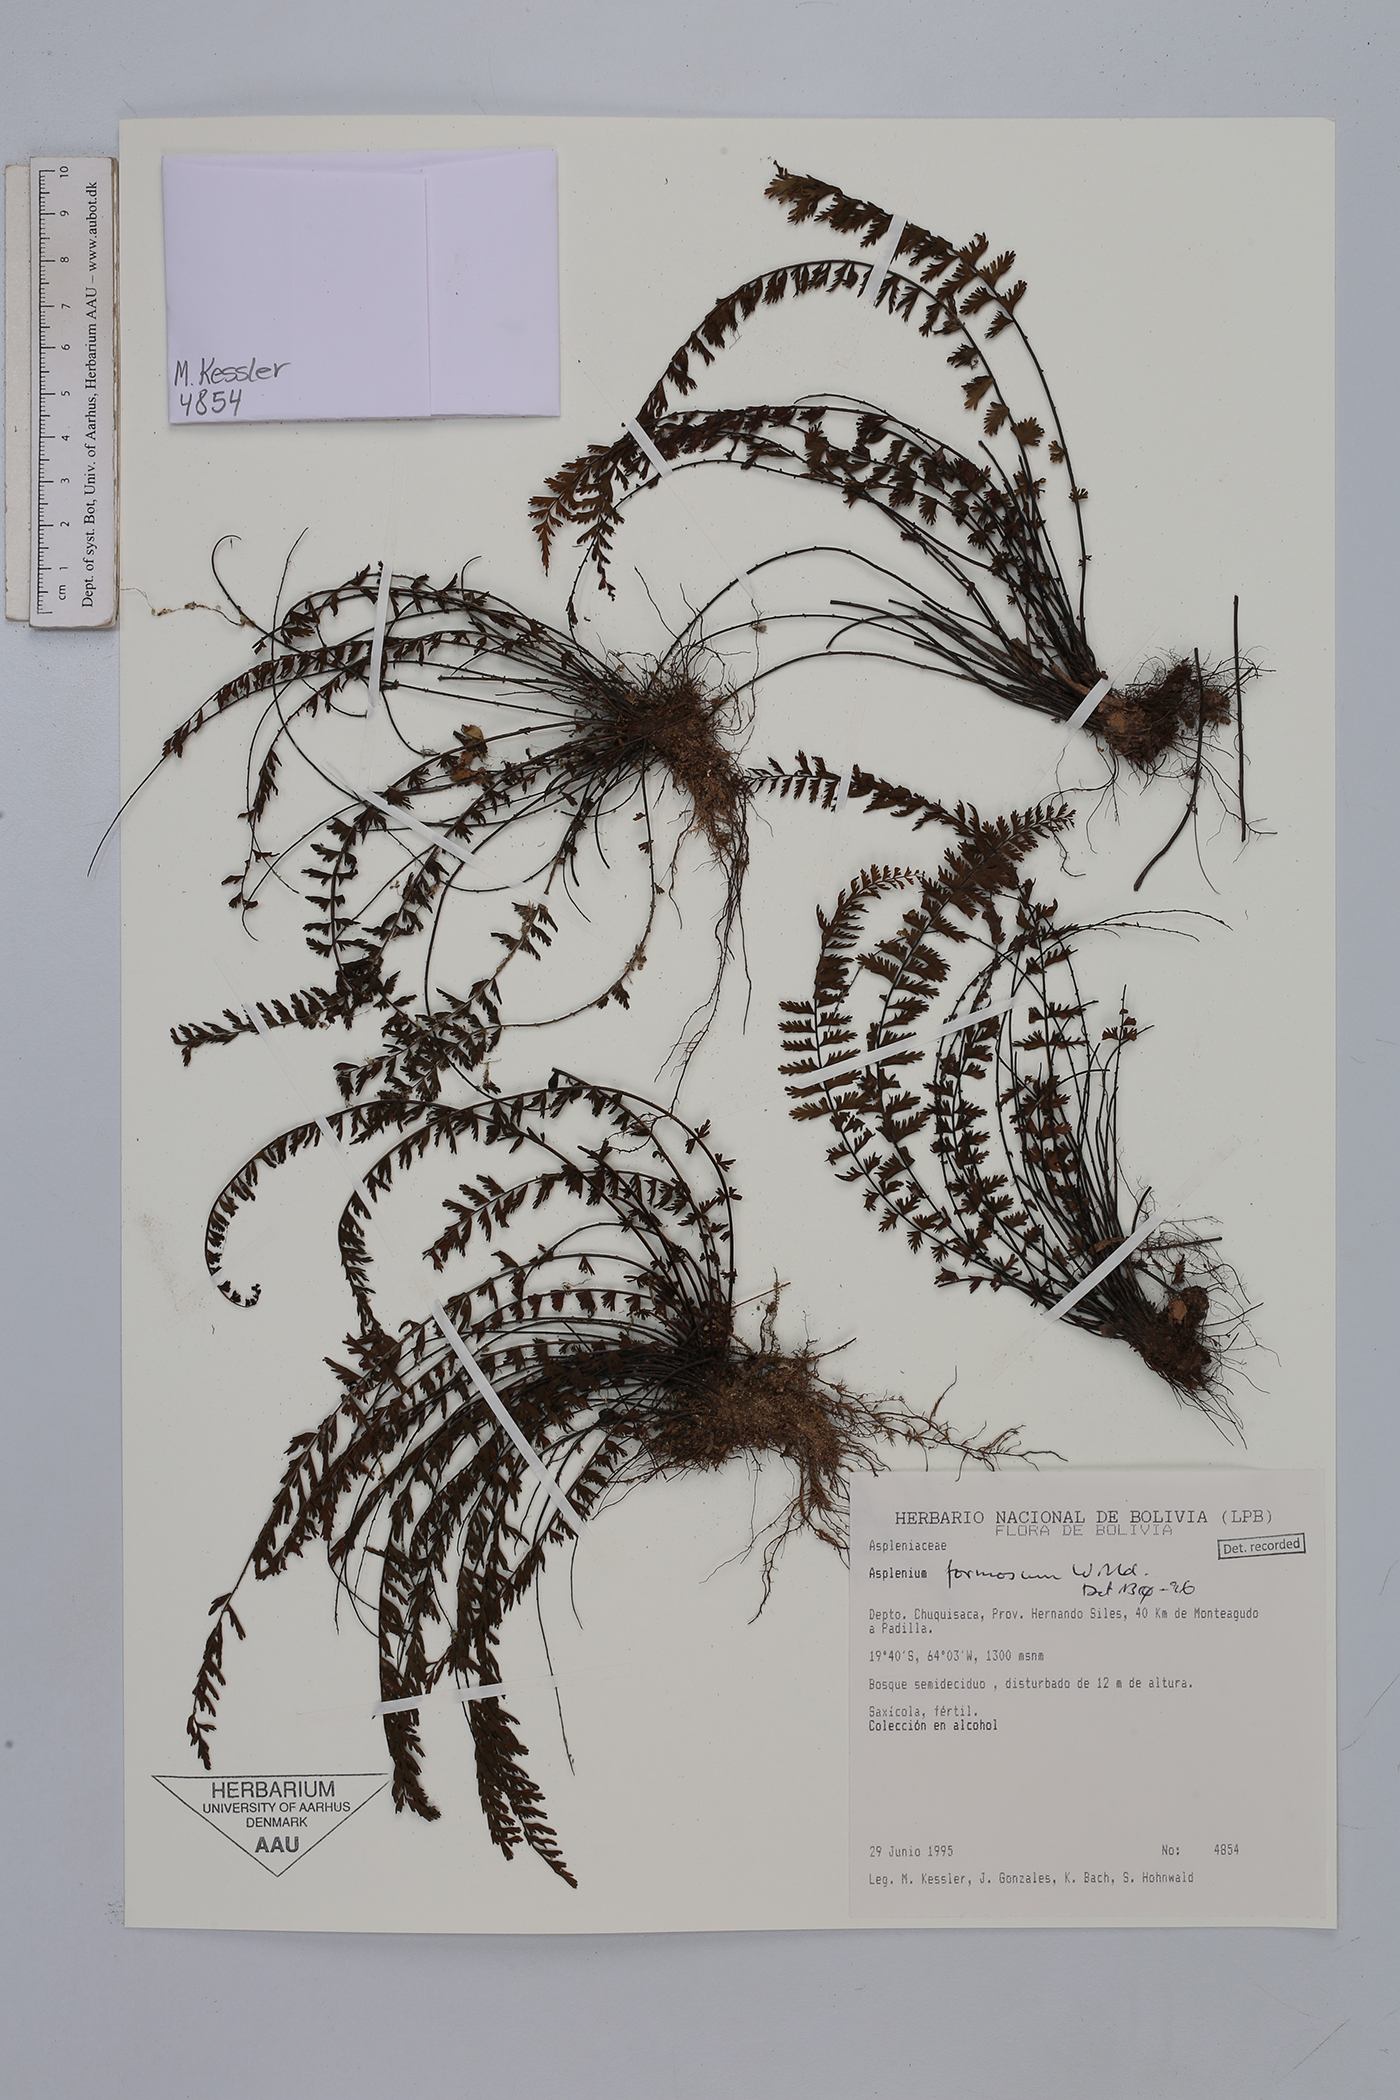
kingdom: Plantae
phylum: Tracheophyta
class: Polypodiopsida
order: Polypodiales
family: Aspleniaceae
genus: Asplenium
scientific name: Asplenium formosum
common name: Showy spleenwort
